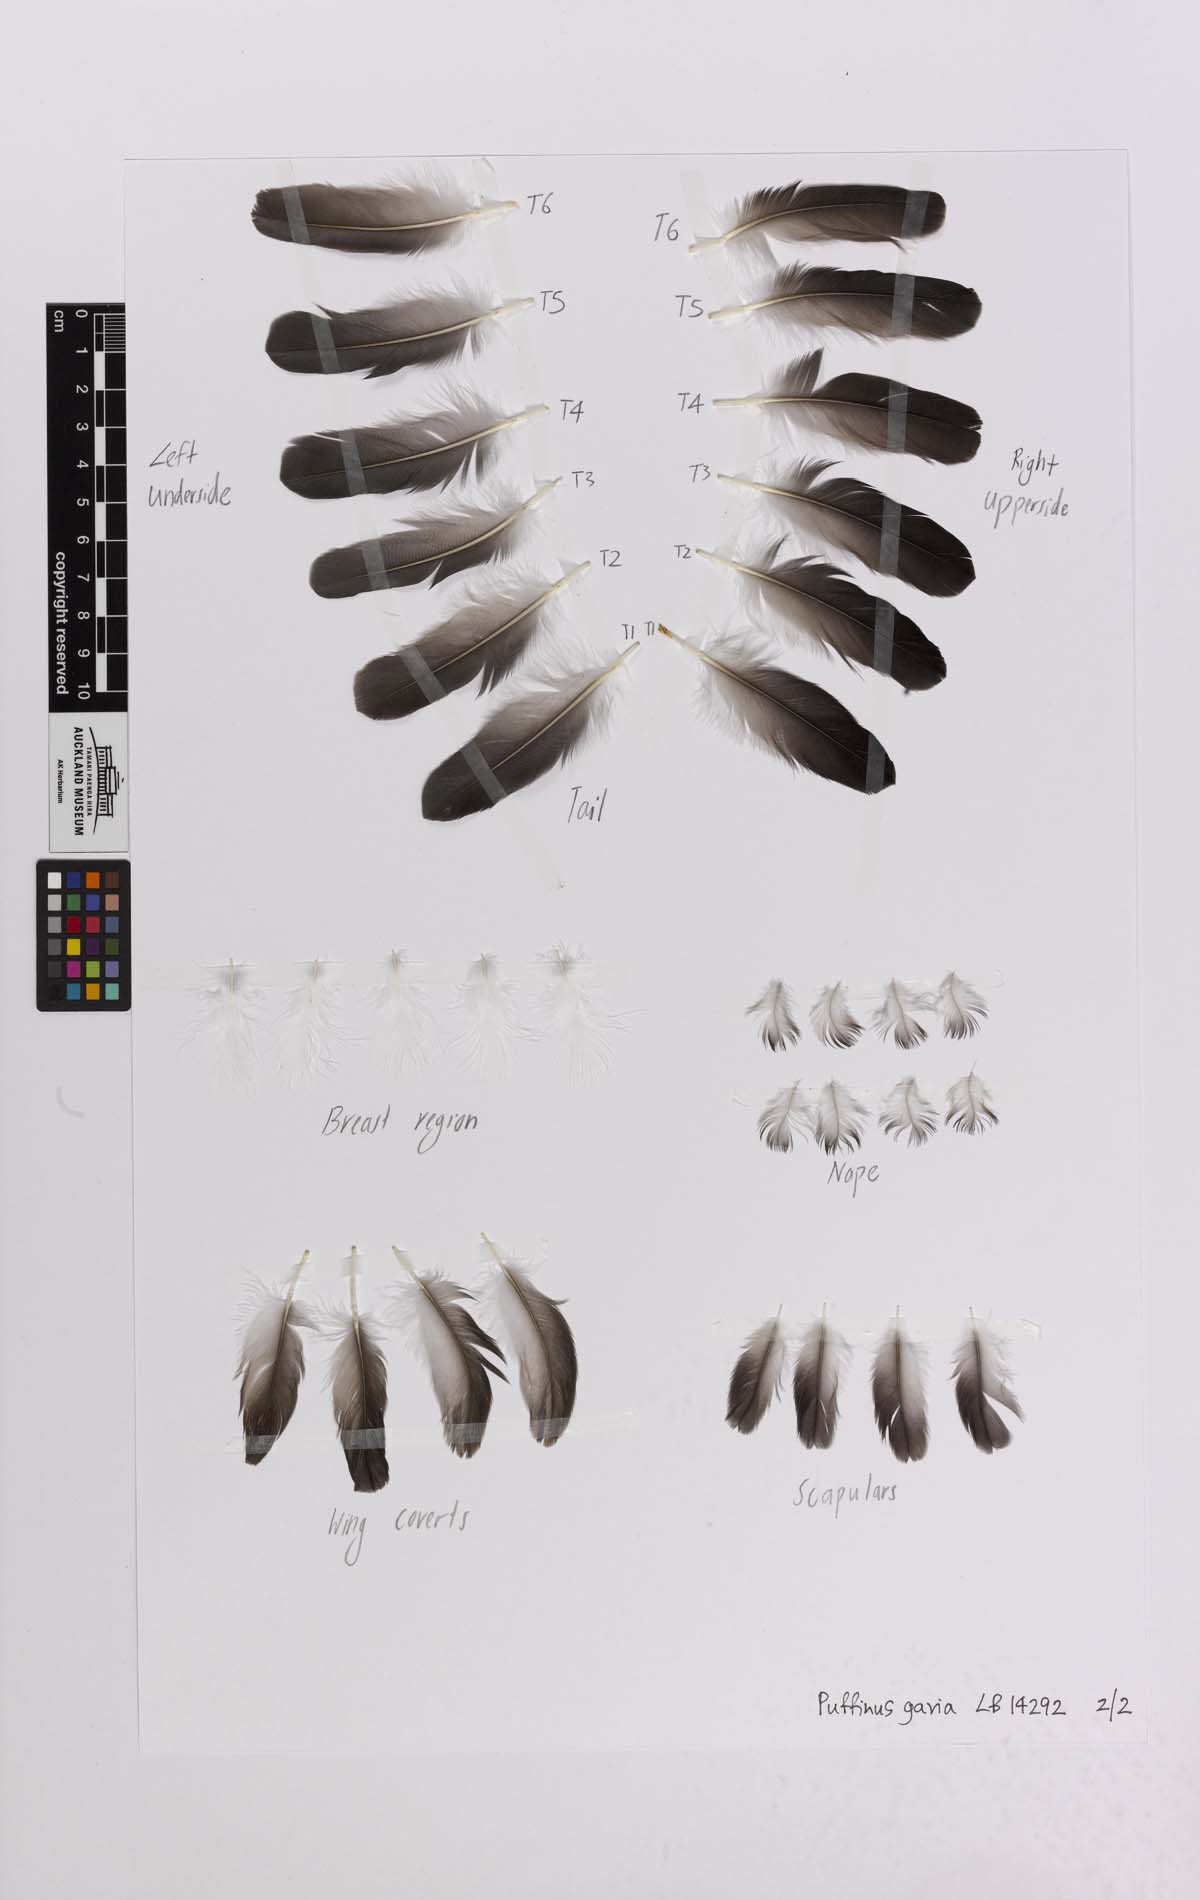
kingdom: Animalia
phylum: Chordata
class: Aves
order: Procellariiformes
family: Procellariidae
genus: Ardenna
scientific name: Ardenna
